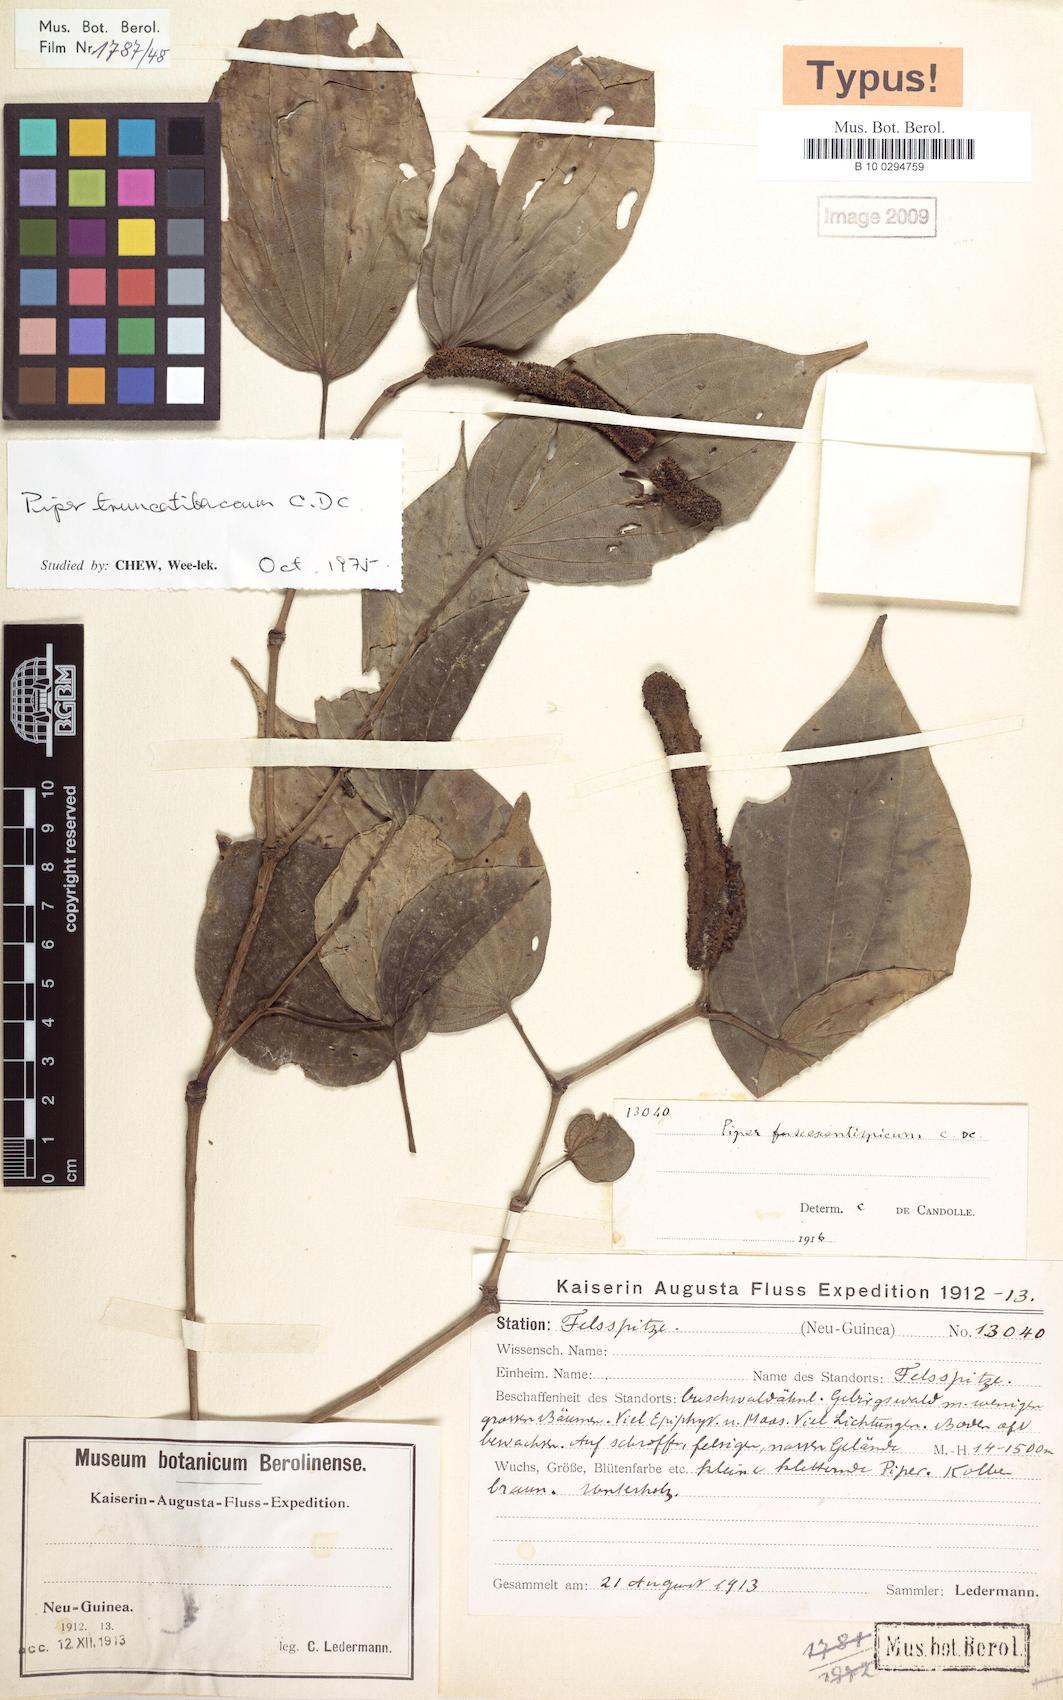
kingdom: Plantae
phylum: Tracheophyta
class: Magnoliopsida
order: Piperales
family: Piperaceae
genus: Piper
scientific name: Piper truncatibaccum
